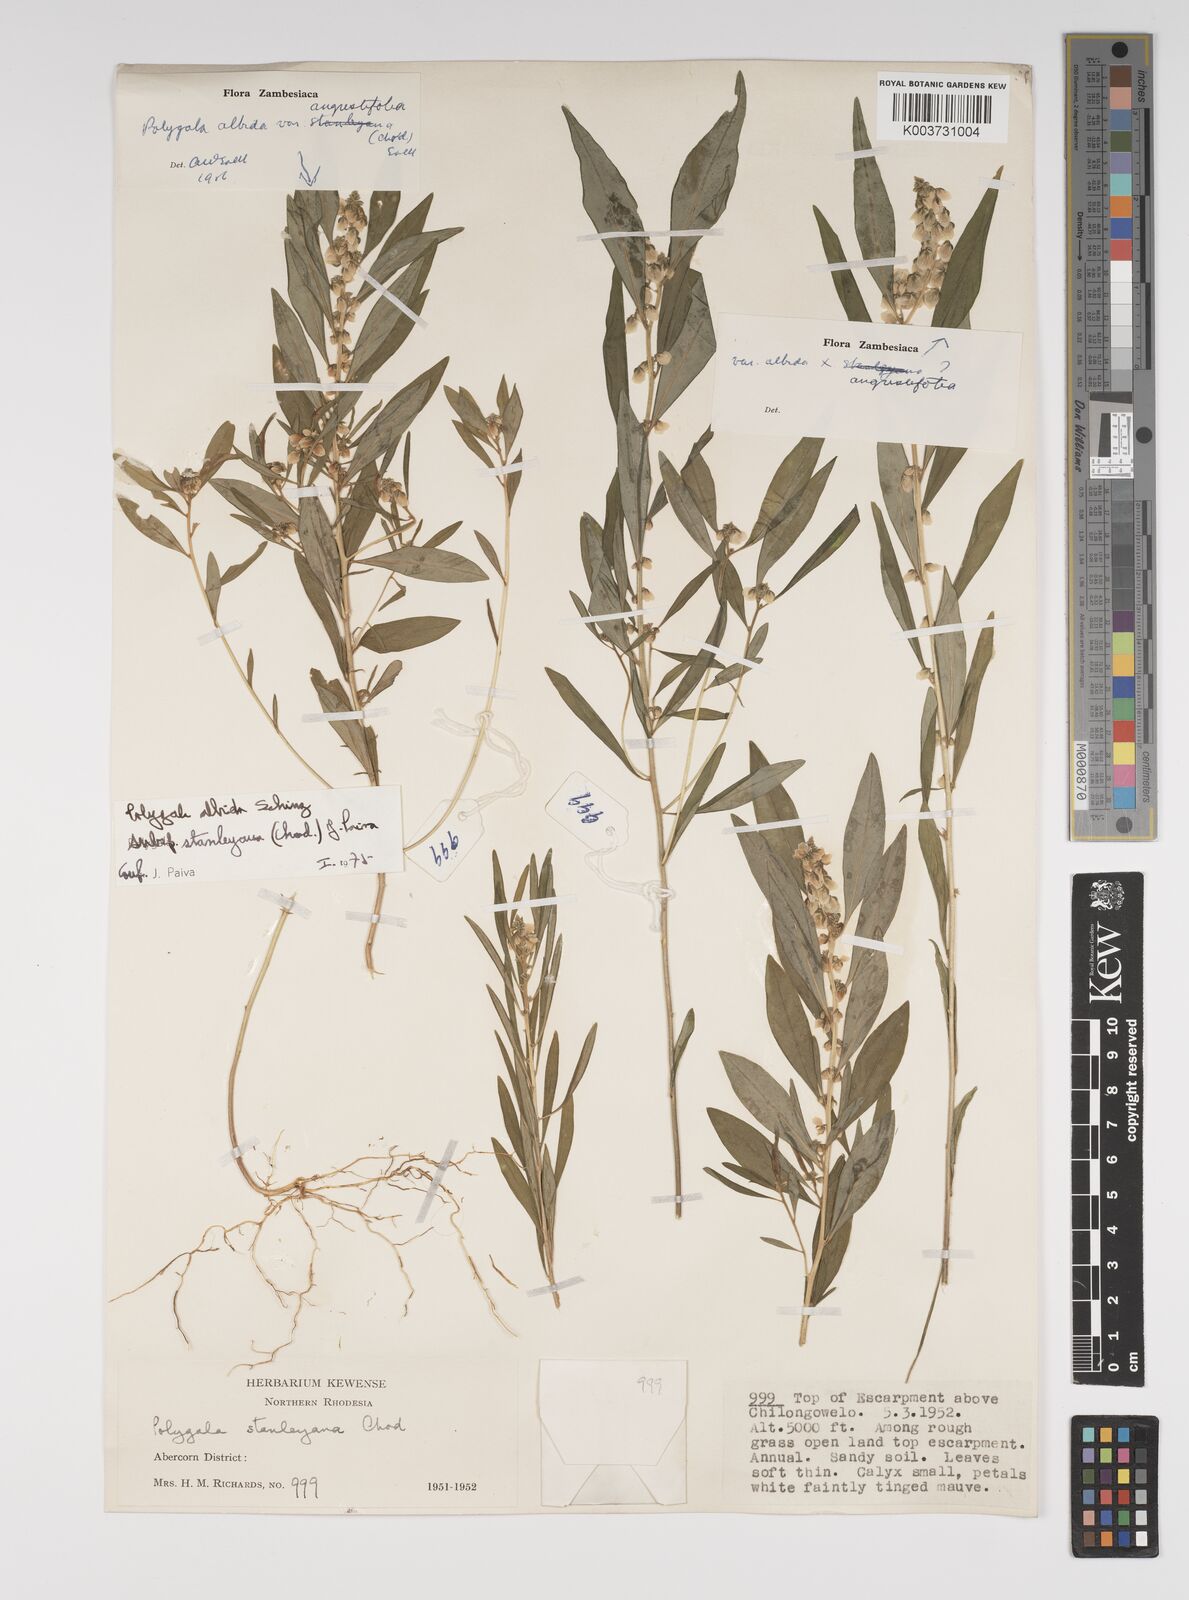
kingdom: Plantae
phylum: Tracheophyta
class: Magnoliopsida
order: Fabales
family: Polygalaceae
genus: Polygala
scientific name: Polygala albida
